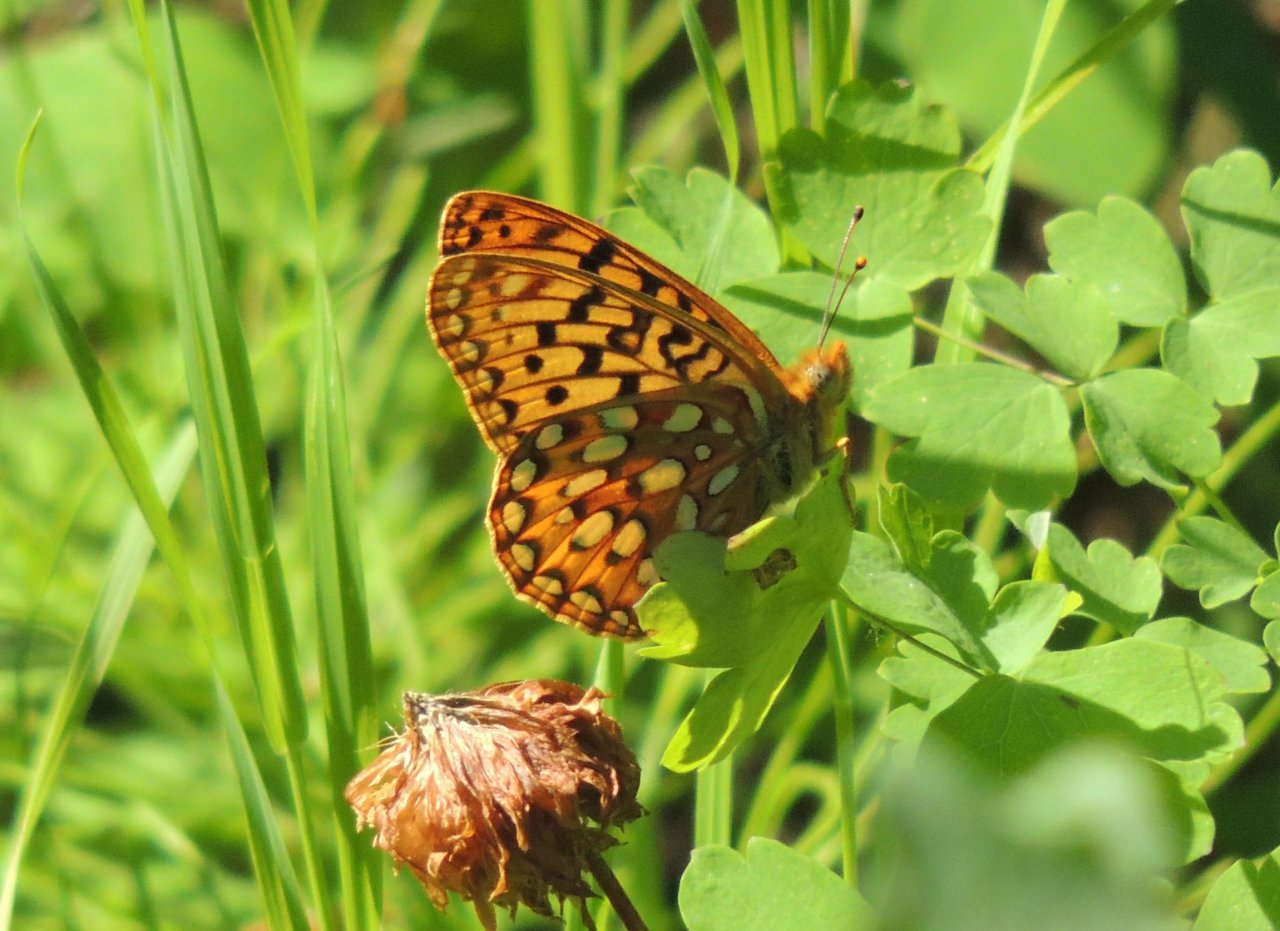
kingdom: Animalia
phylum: Arthropoda
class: Insecta
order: Lepidoptera
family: Nymphalidae
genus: Speyeria
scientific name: Speyeria zerene
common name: Zerene Fritillary
